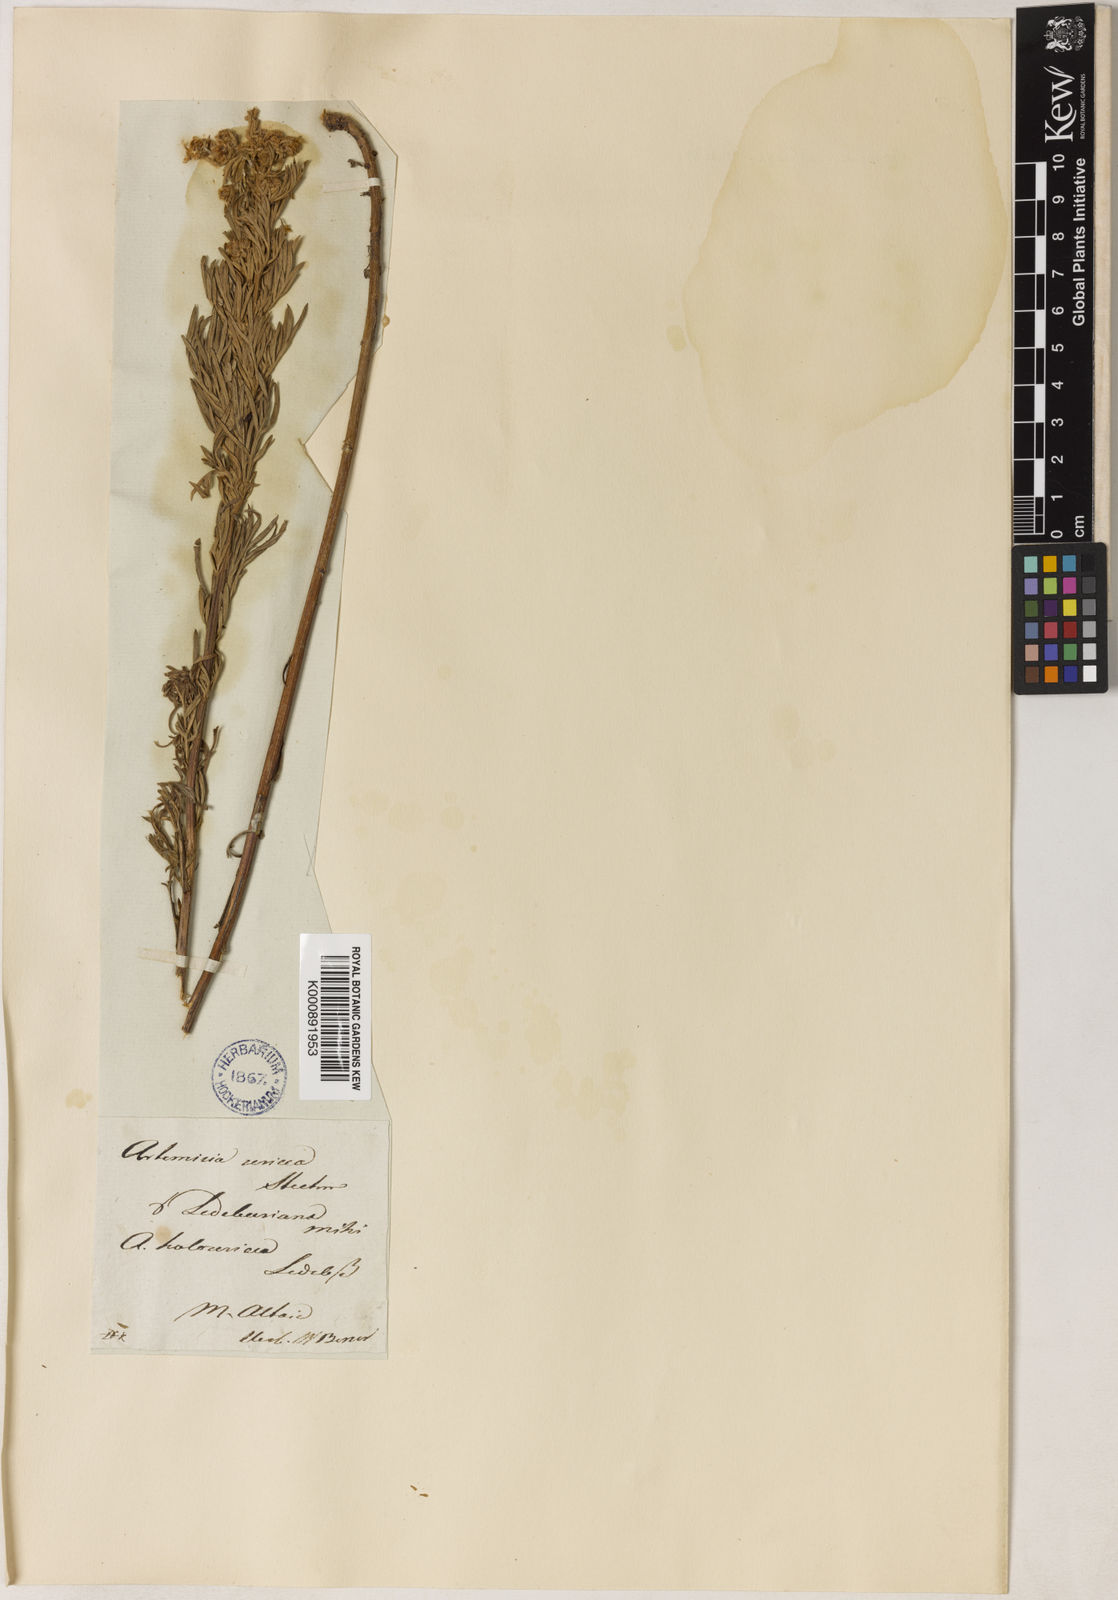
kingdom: Plantae
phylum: Tracheophyta
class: Magnoliopsida
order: Asterales
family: Asteraceae
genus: Artemisia
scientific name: Artemisia sericea
